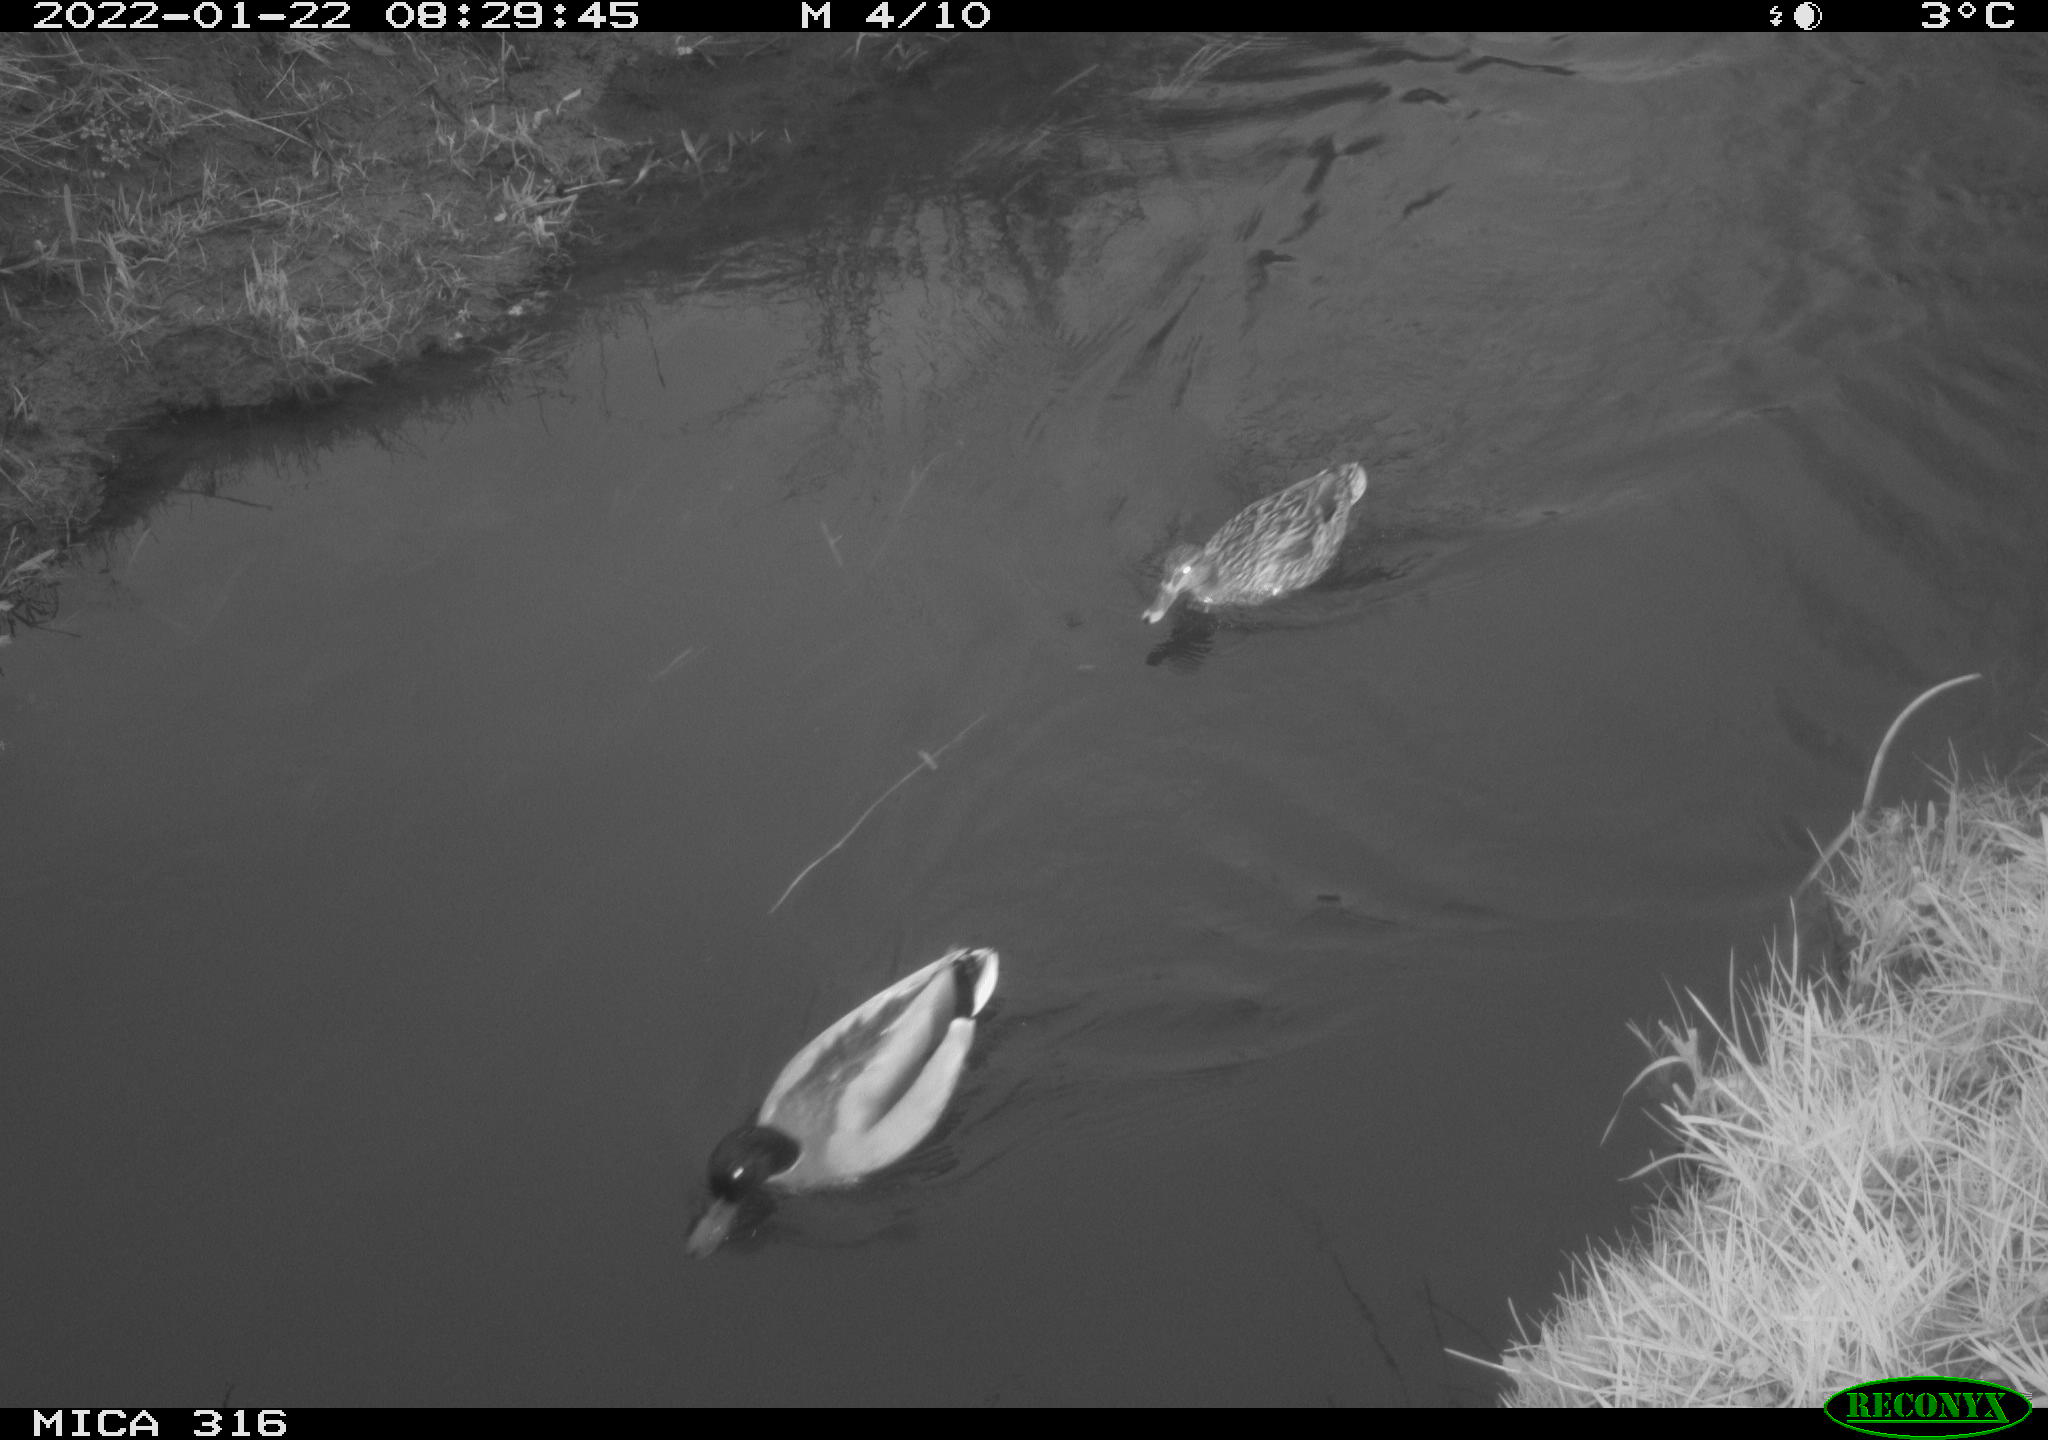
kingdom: Animalia
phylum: Chordata
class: Aves
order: Anseriformes
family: Anatidae
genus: Anas
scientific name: Anas platyrhynchos
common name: Mallard
